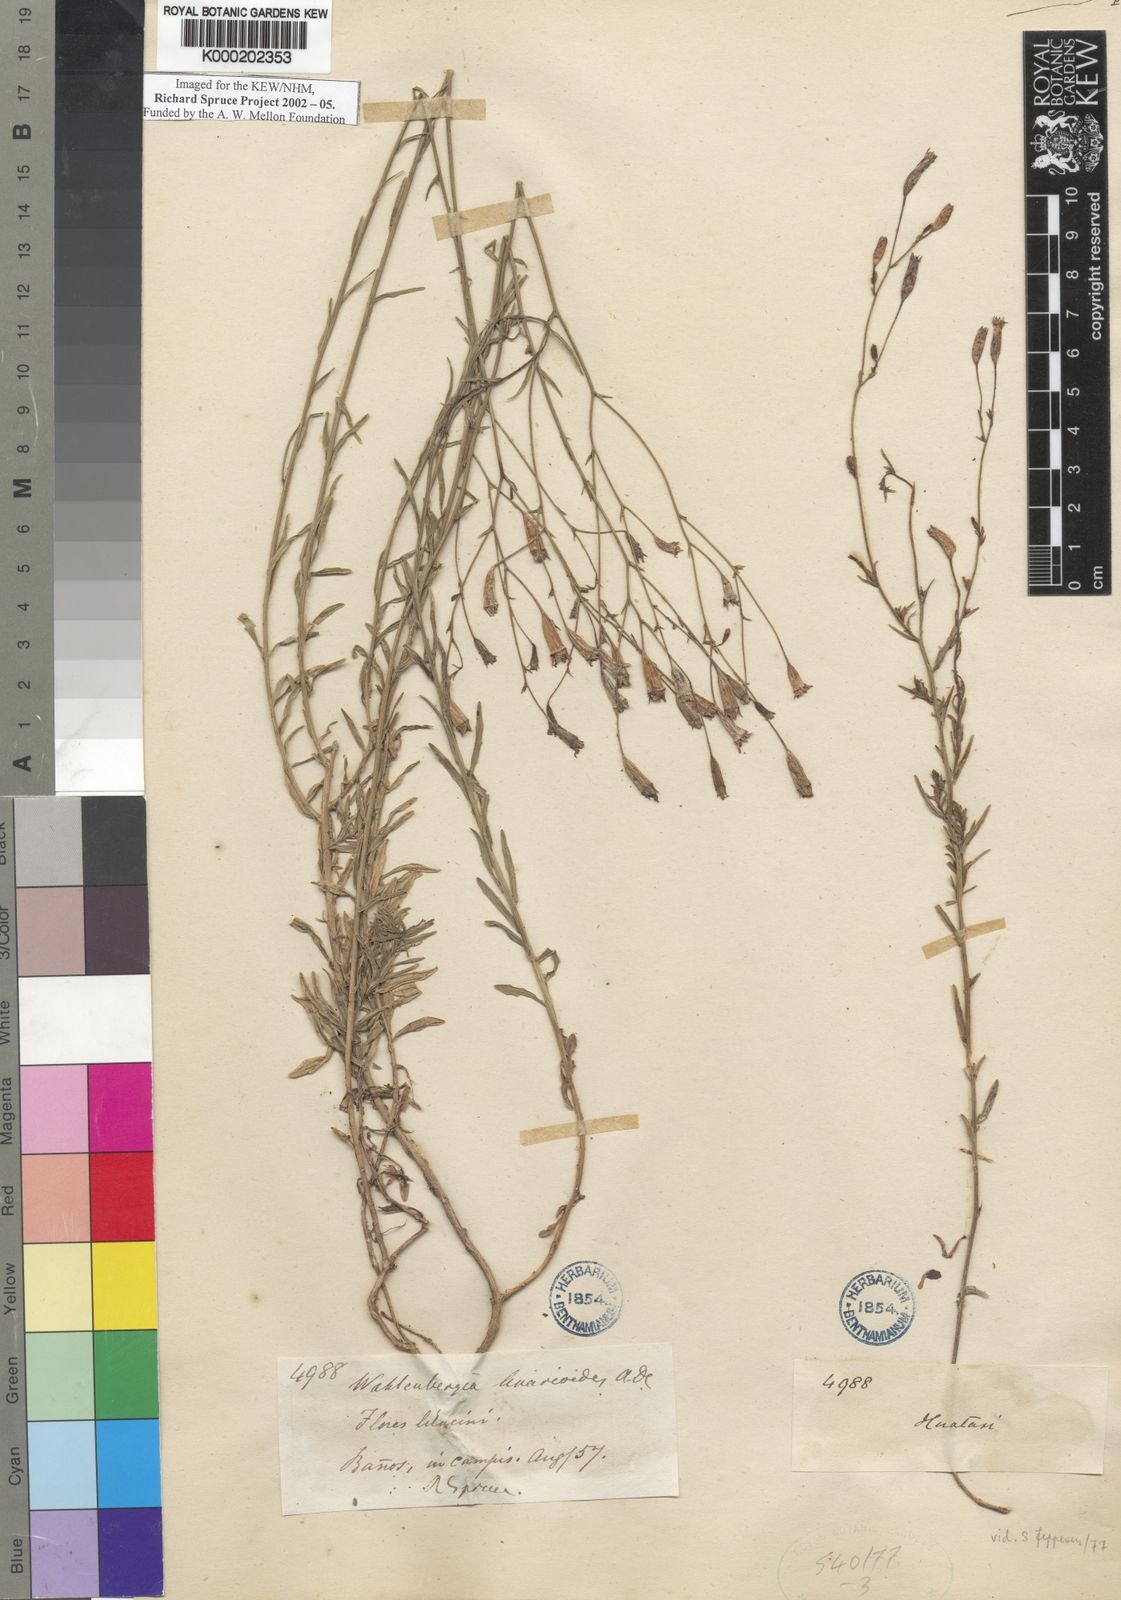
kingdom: Plantae
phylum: Tracheophyta
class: Magnoliopsida
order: Asterales
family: Campanulaceae
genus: Wahlenbergia
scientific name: Wahlenbergia linarioides
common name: Tuffybells
